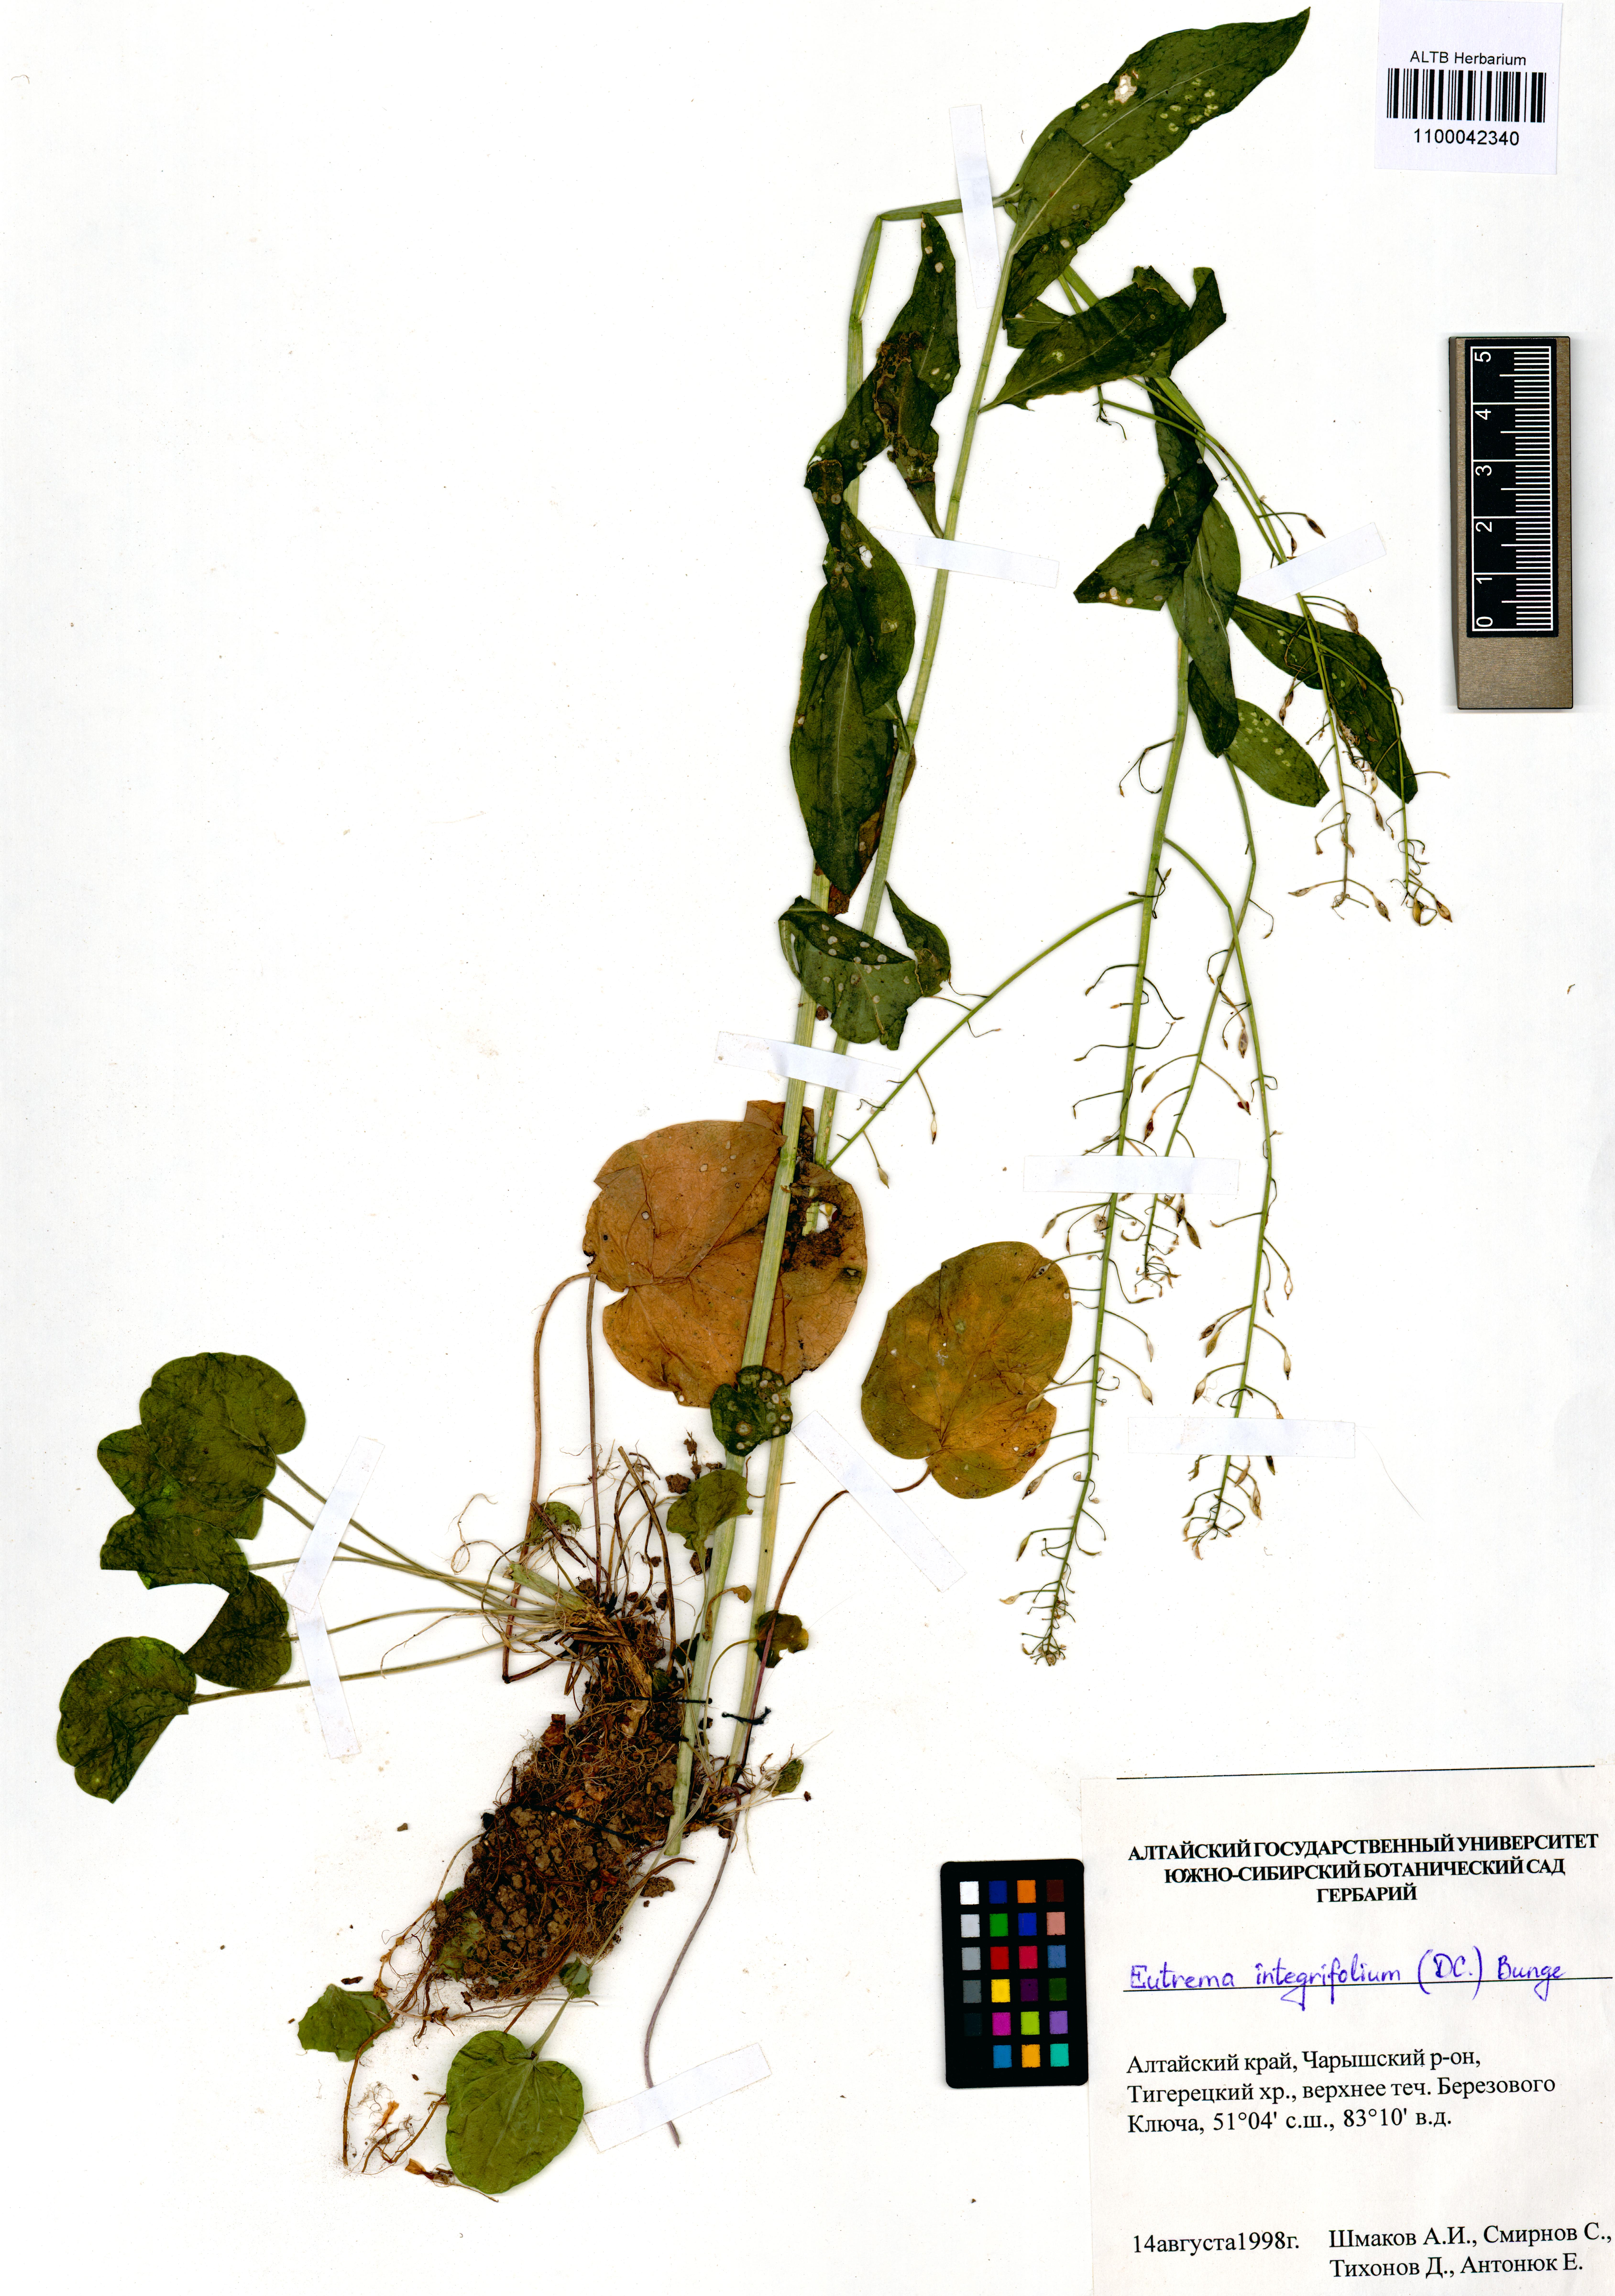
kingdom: Plantae
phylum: Tracheophyta
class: Magnoliopsida
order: Brassicales
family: Brassicaceae
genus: Eutrema
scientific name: Eutrema integrifolium
